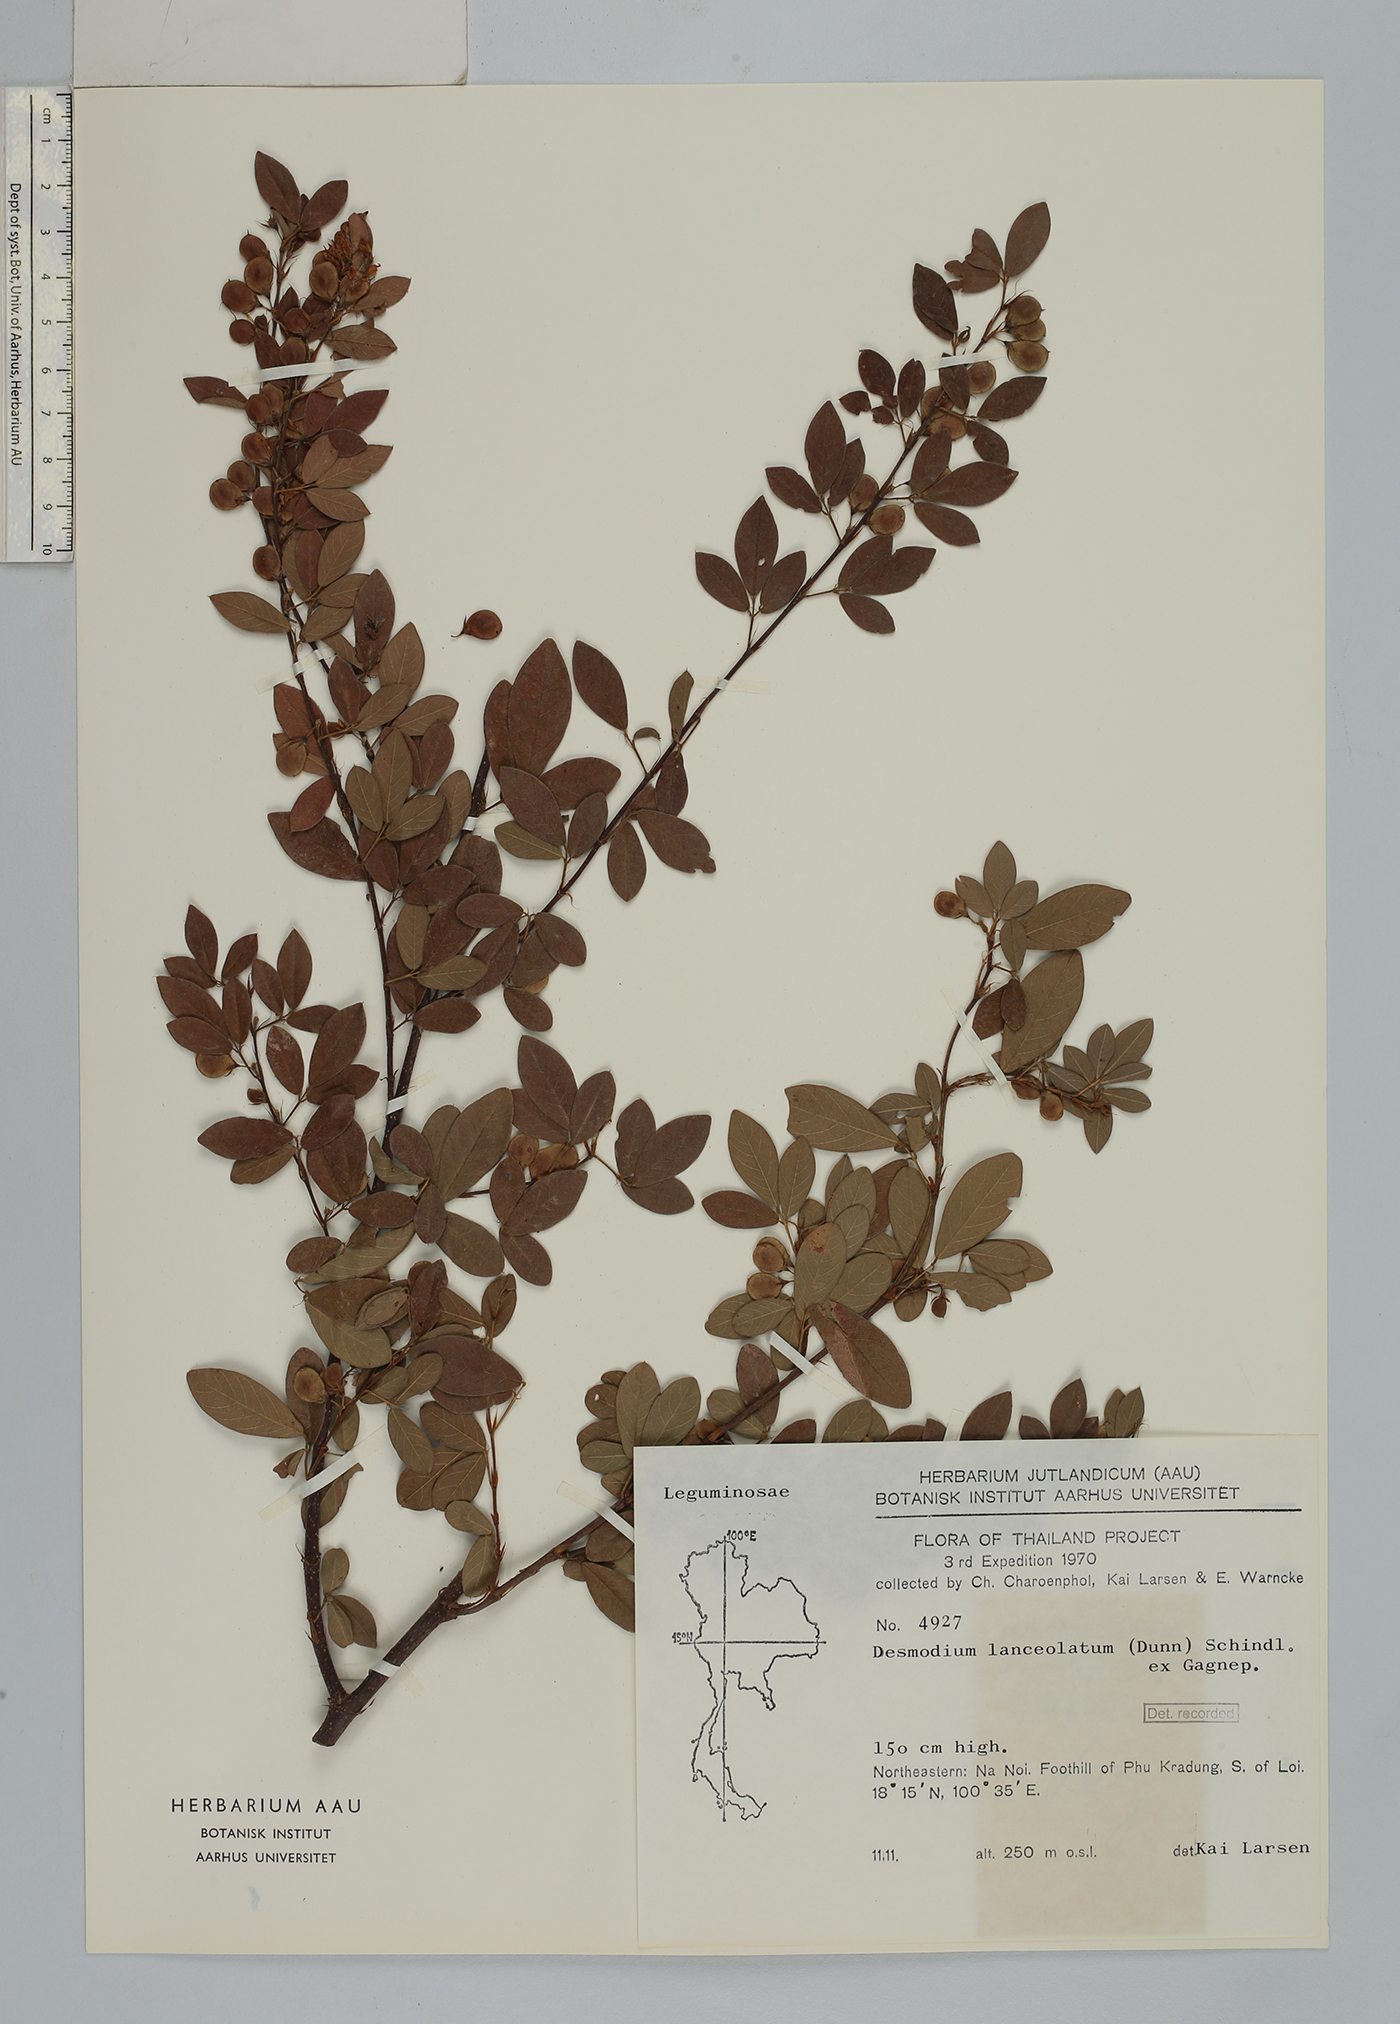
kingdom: Plantae
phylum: Tracheophyta
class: Magnoliopsida
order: Fabales
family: Fabaceae
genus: Dendrolobium
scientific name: Dendrolobium lanceolatum
